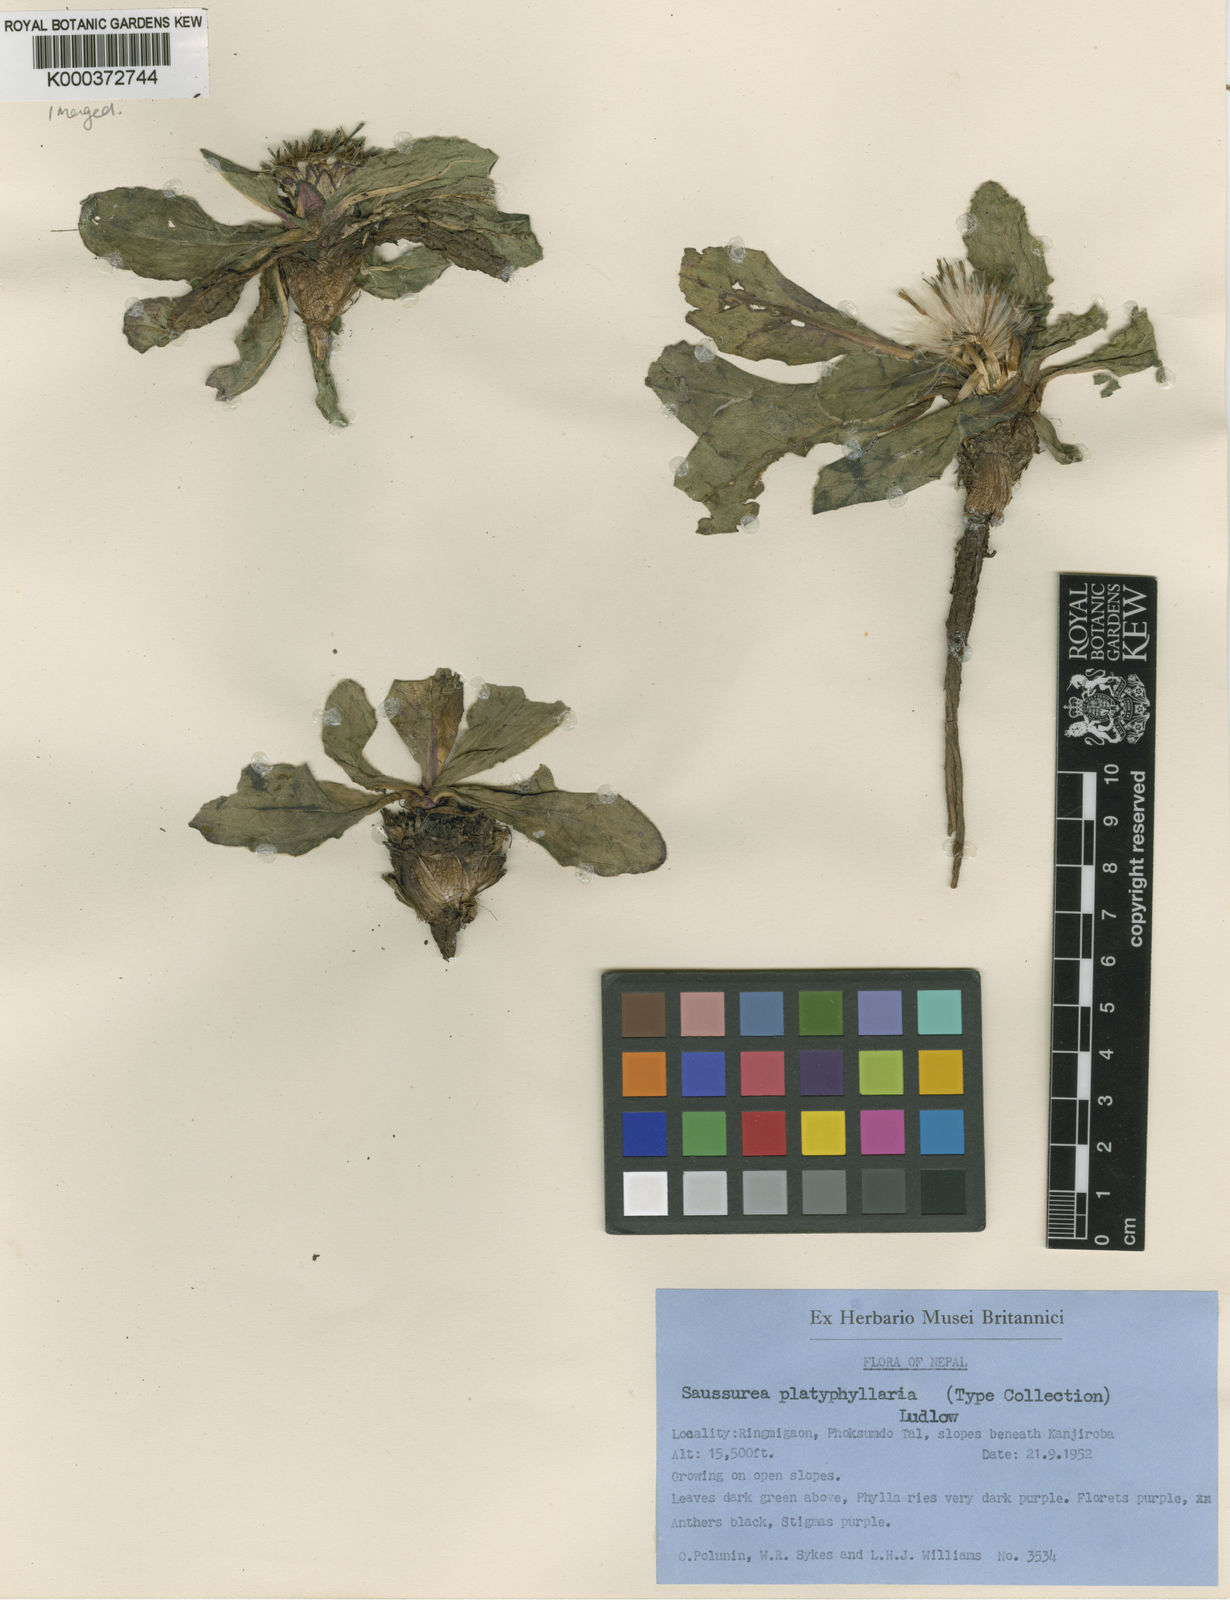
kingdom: Plantae
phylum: Tracheophyta
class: Magnoliopsida
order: Asterales
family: Asteraceae
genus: Saussurea
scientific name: Saussurea platyphyllaria
